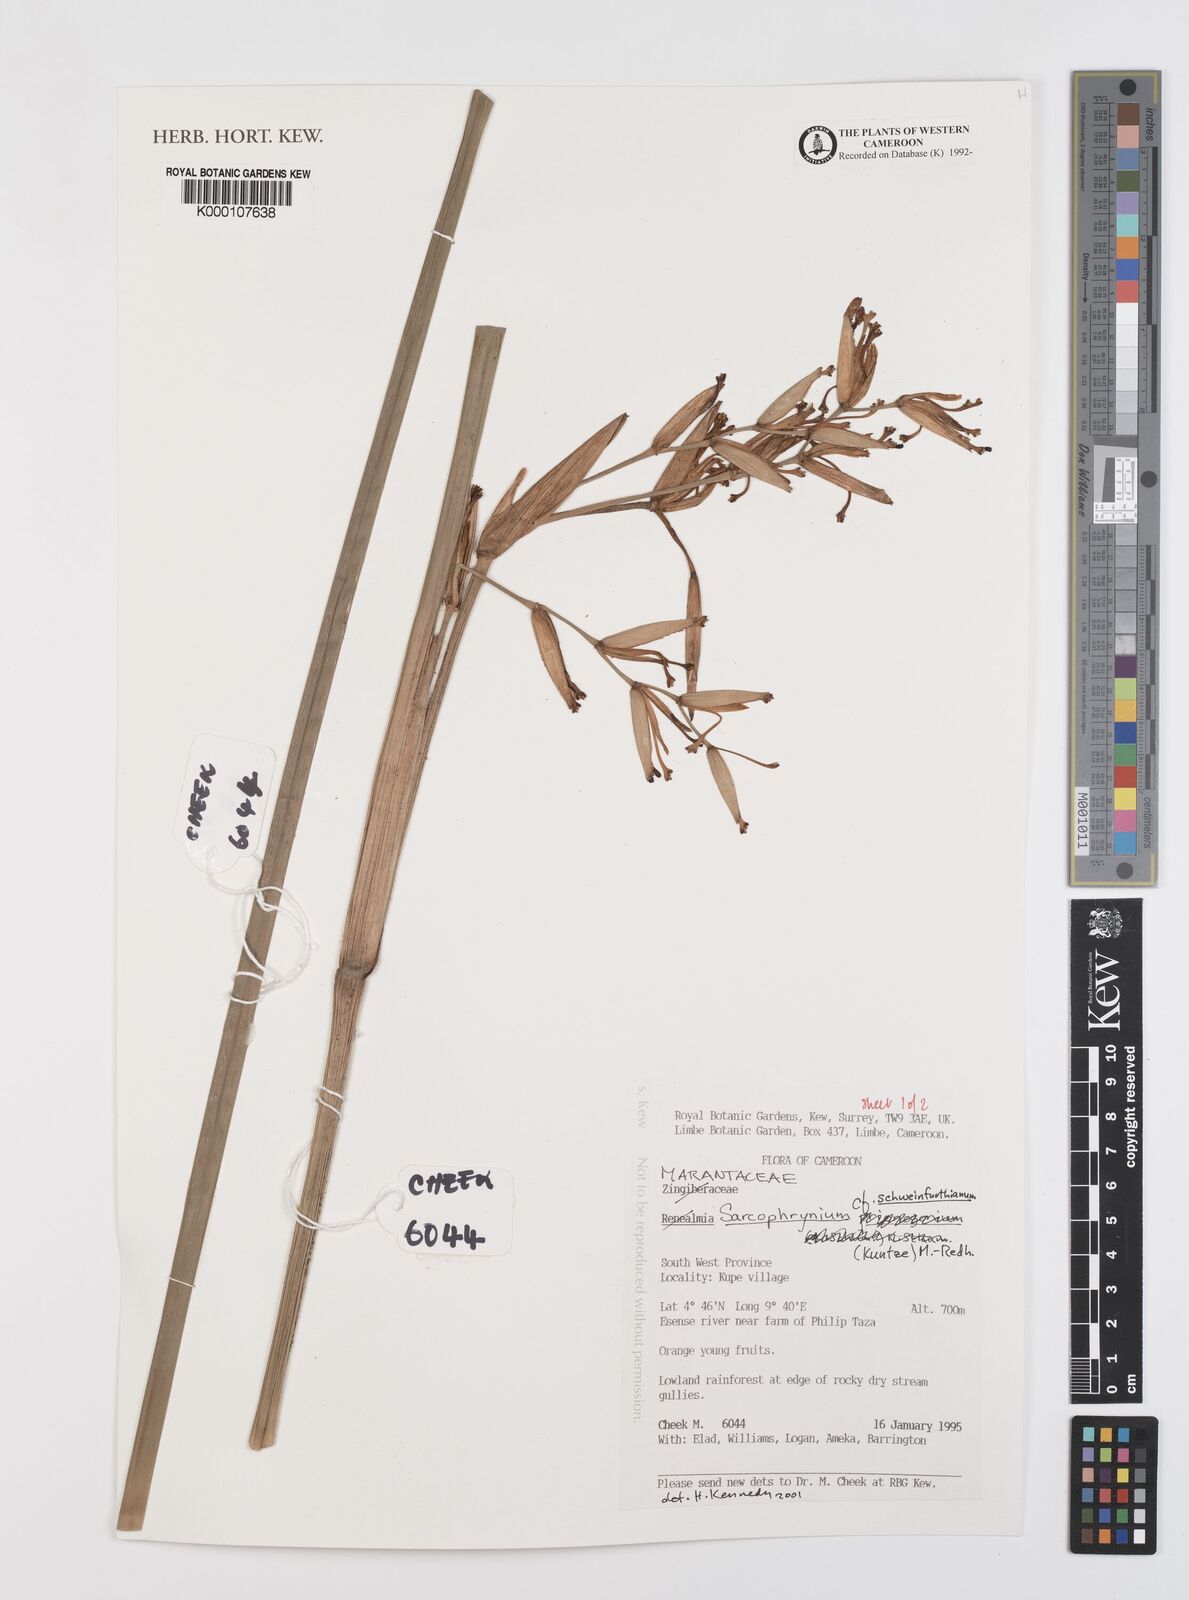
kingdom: Plantae
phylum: Tracheophyta
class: Liliopsida
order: Zingiberales
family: Marantaceae
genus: Sarcophrynium
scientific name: Sarcophrynium schweinfurthianum
